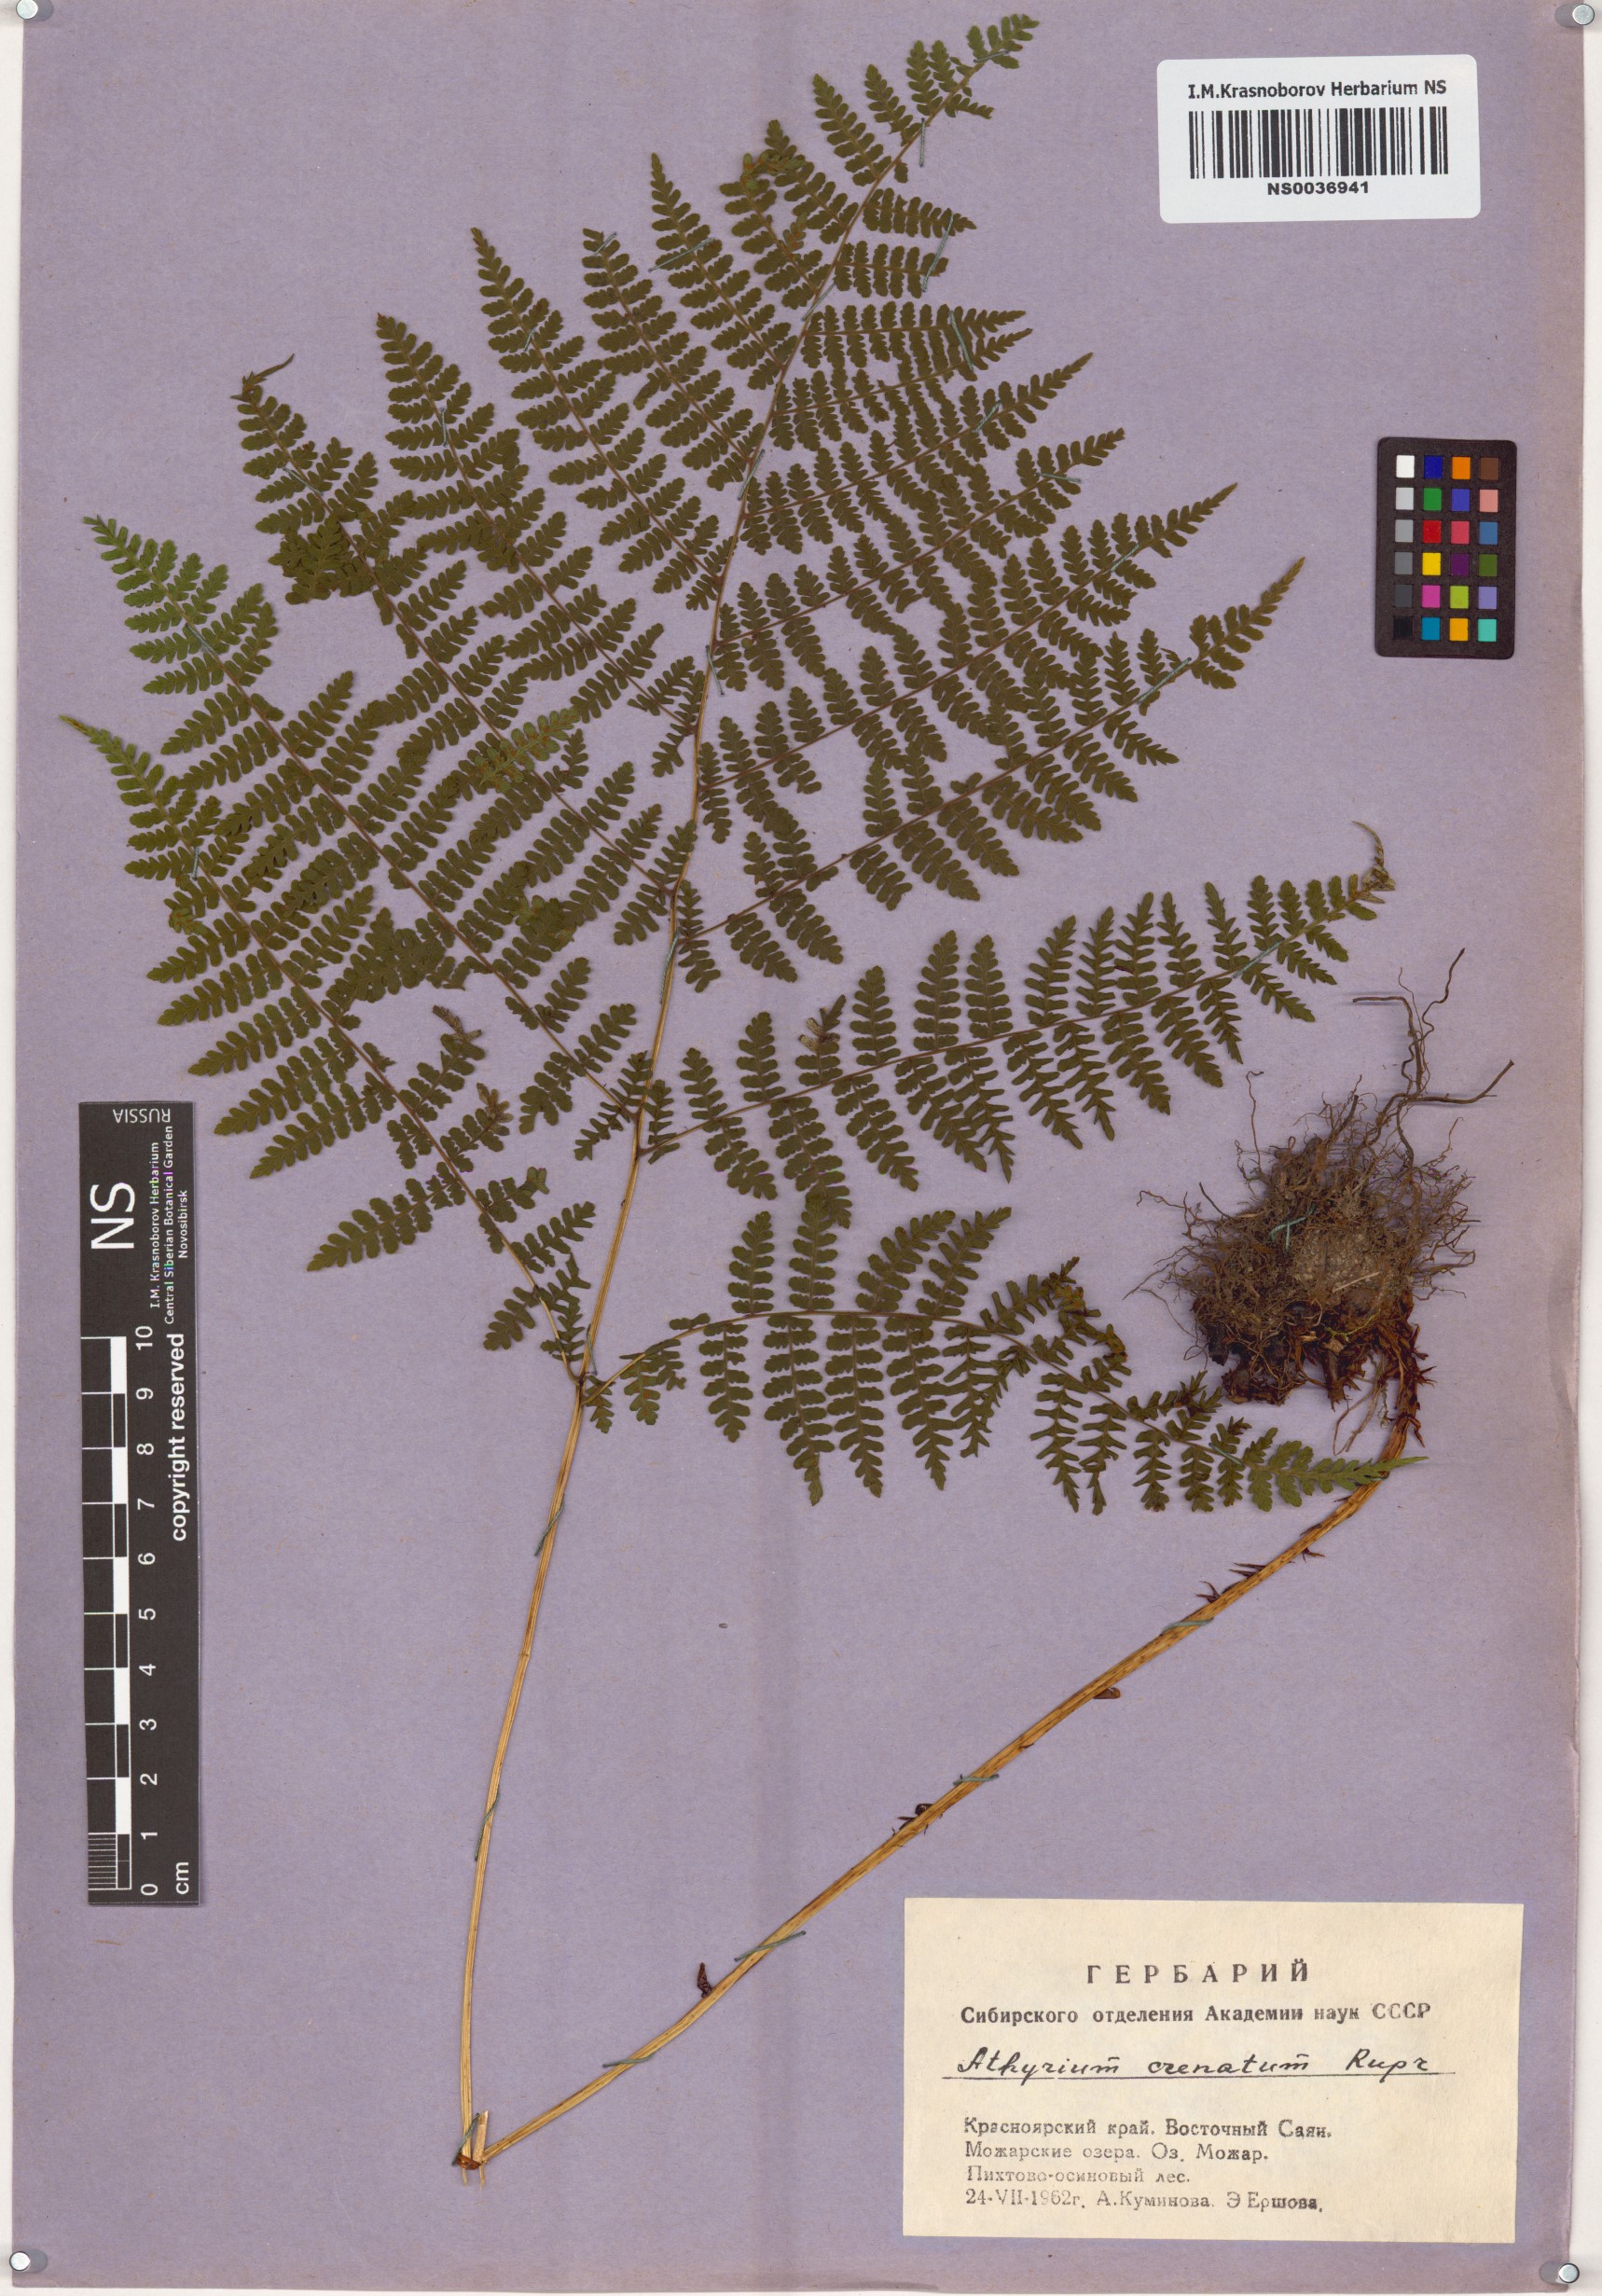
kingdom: Plantae
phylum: Tracheophyta
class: Polypodiopsida
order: Polypodiales
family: Athyriaceae
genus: Diplazium
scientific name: Diplazium sibiricum
